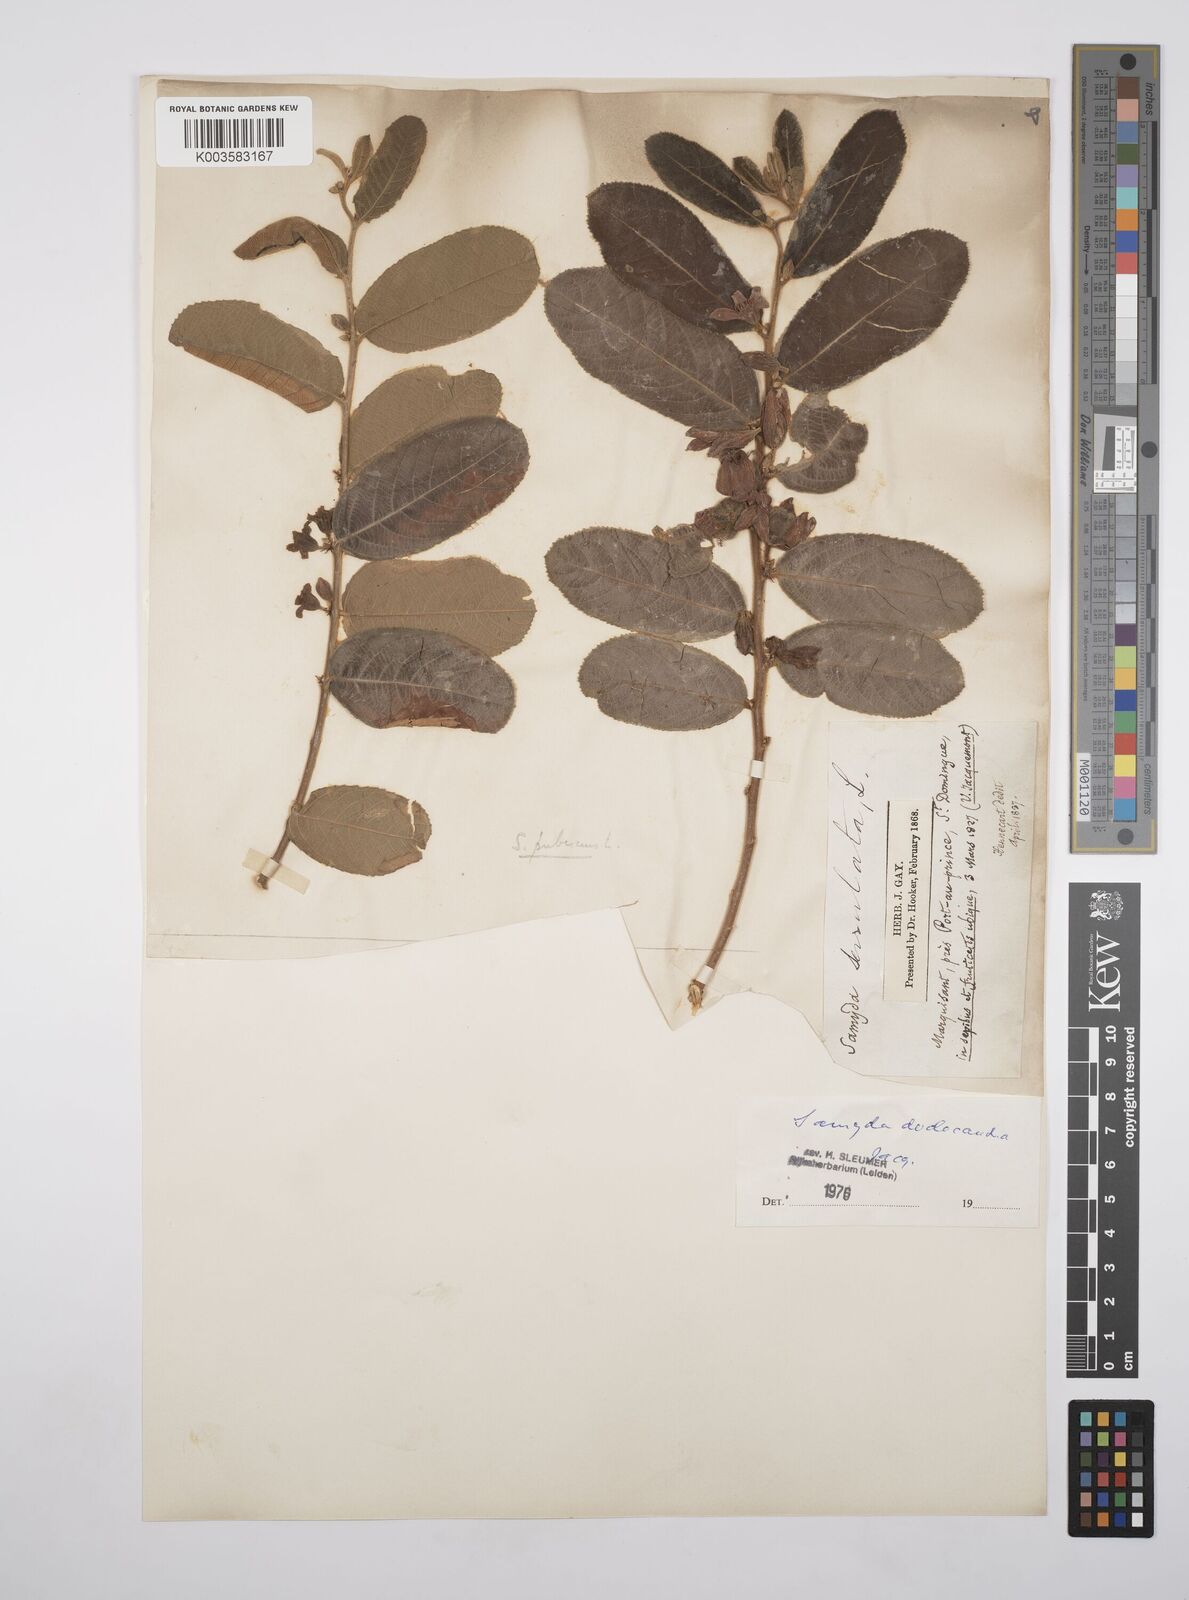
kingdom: Plantae
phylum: Tracheophyta
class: Magnoliopsida
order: Malpighiales
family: Salicaceae
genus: Casearia
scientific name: Casearia dodecandra
